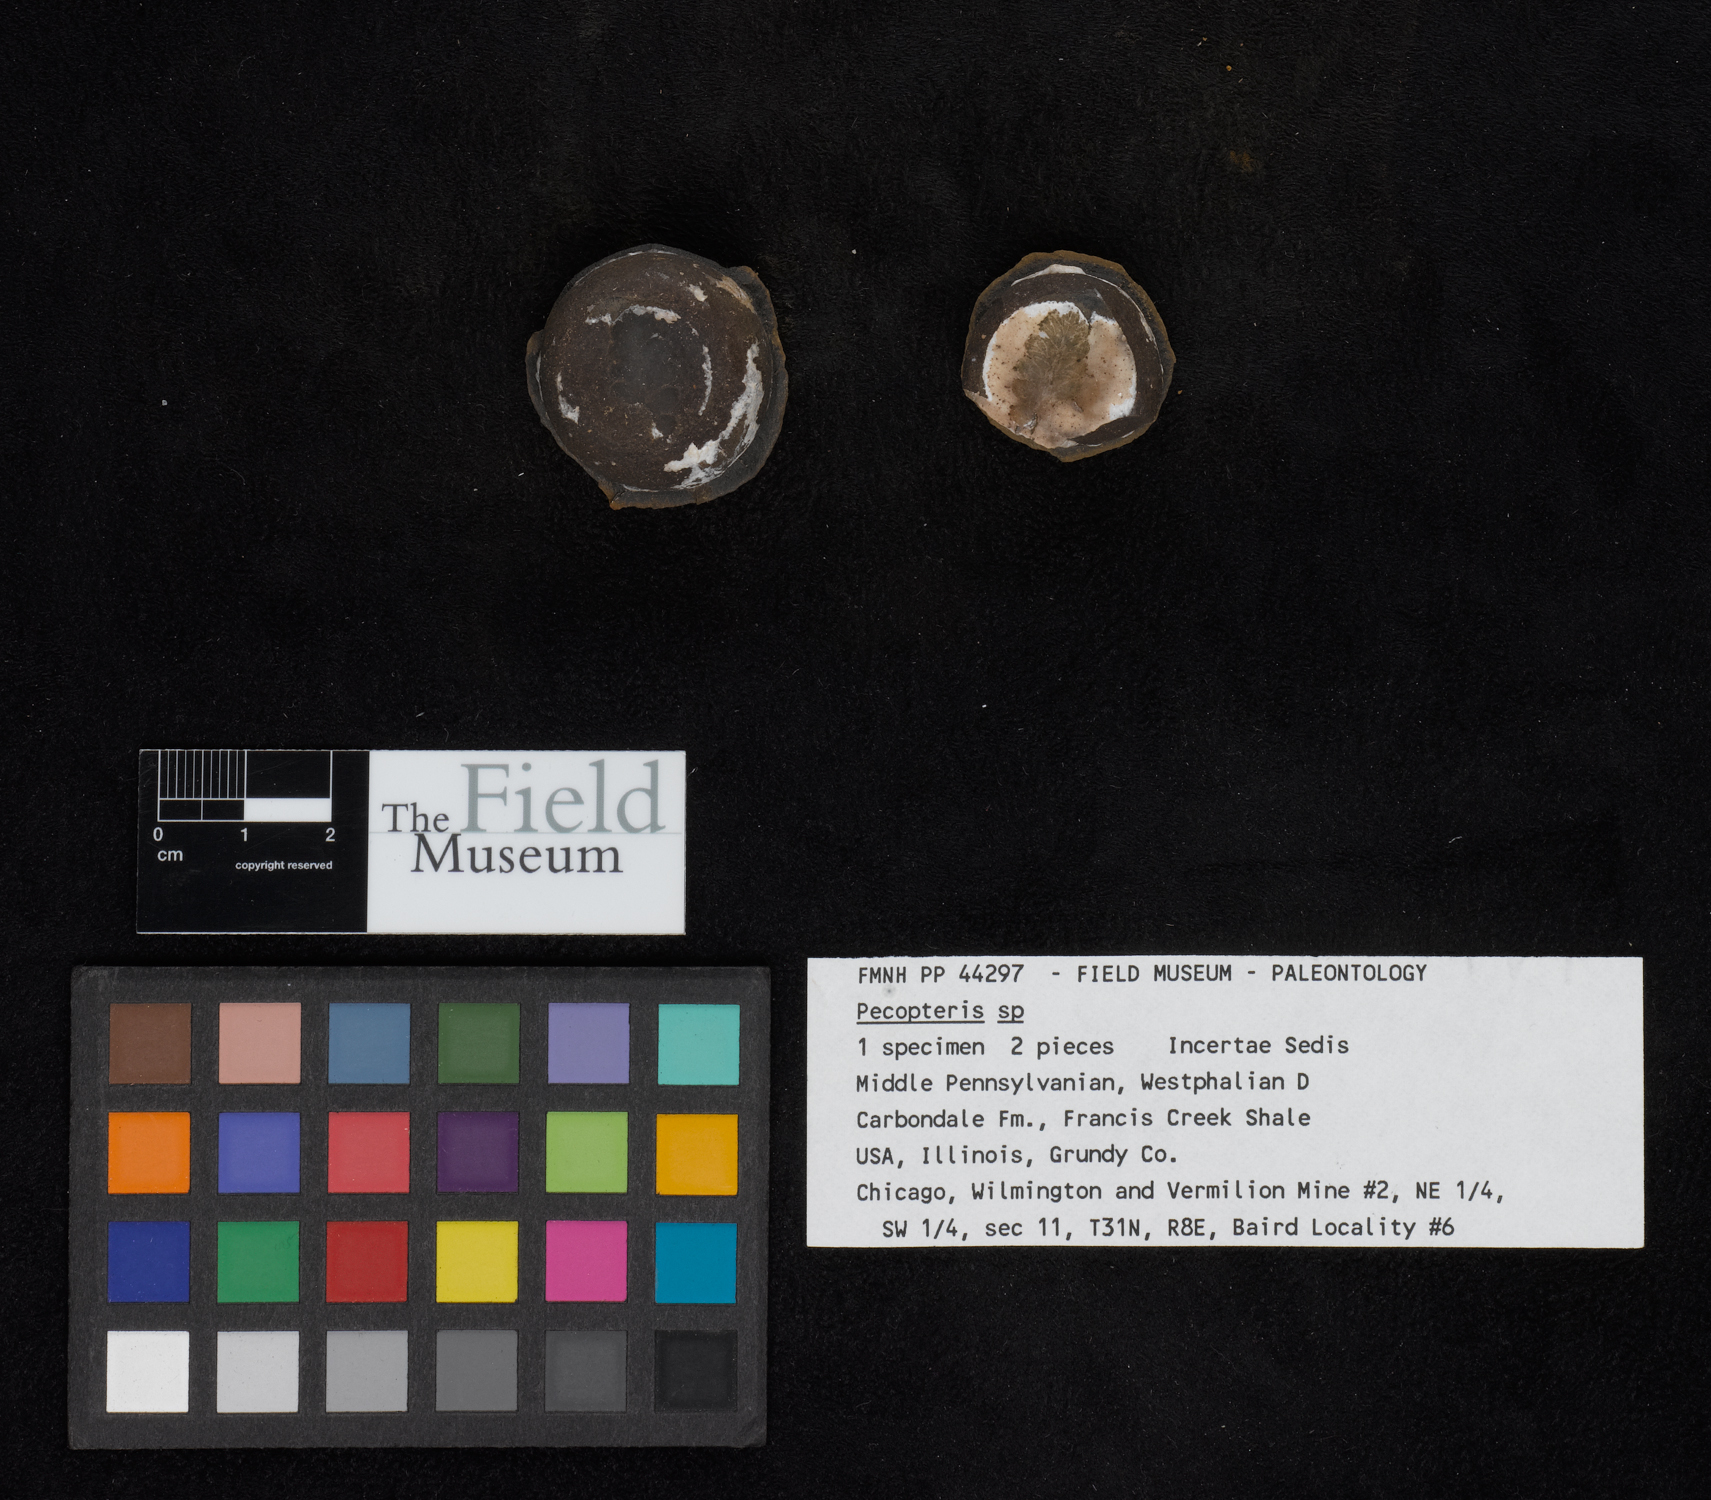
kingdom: Plantae
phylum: Tracheophyta
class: Polypodiopsida
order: Marattiales
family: Asterothecaceae
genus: Pecopteris
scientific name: Pecopteris
